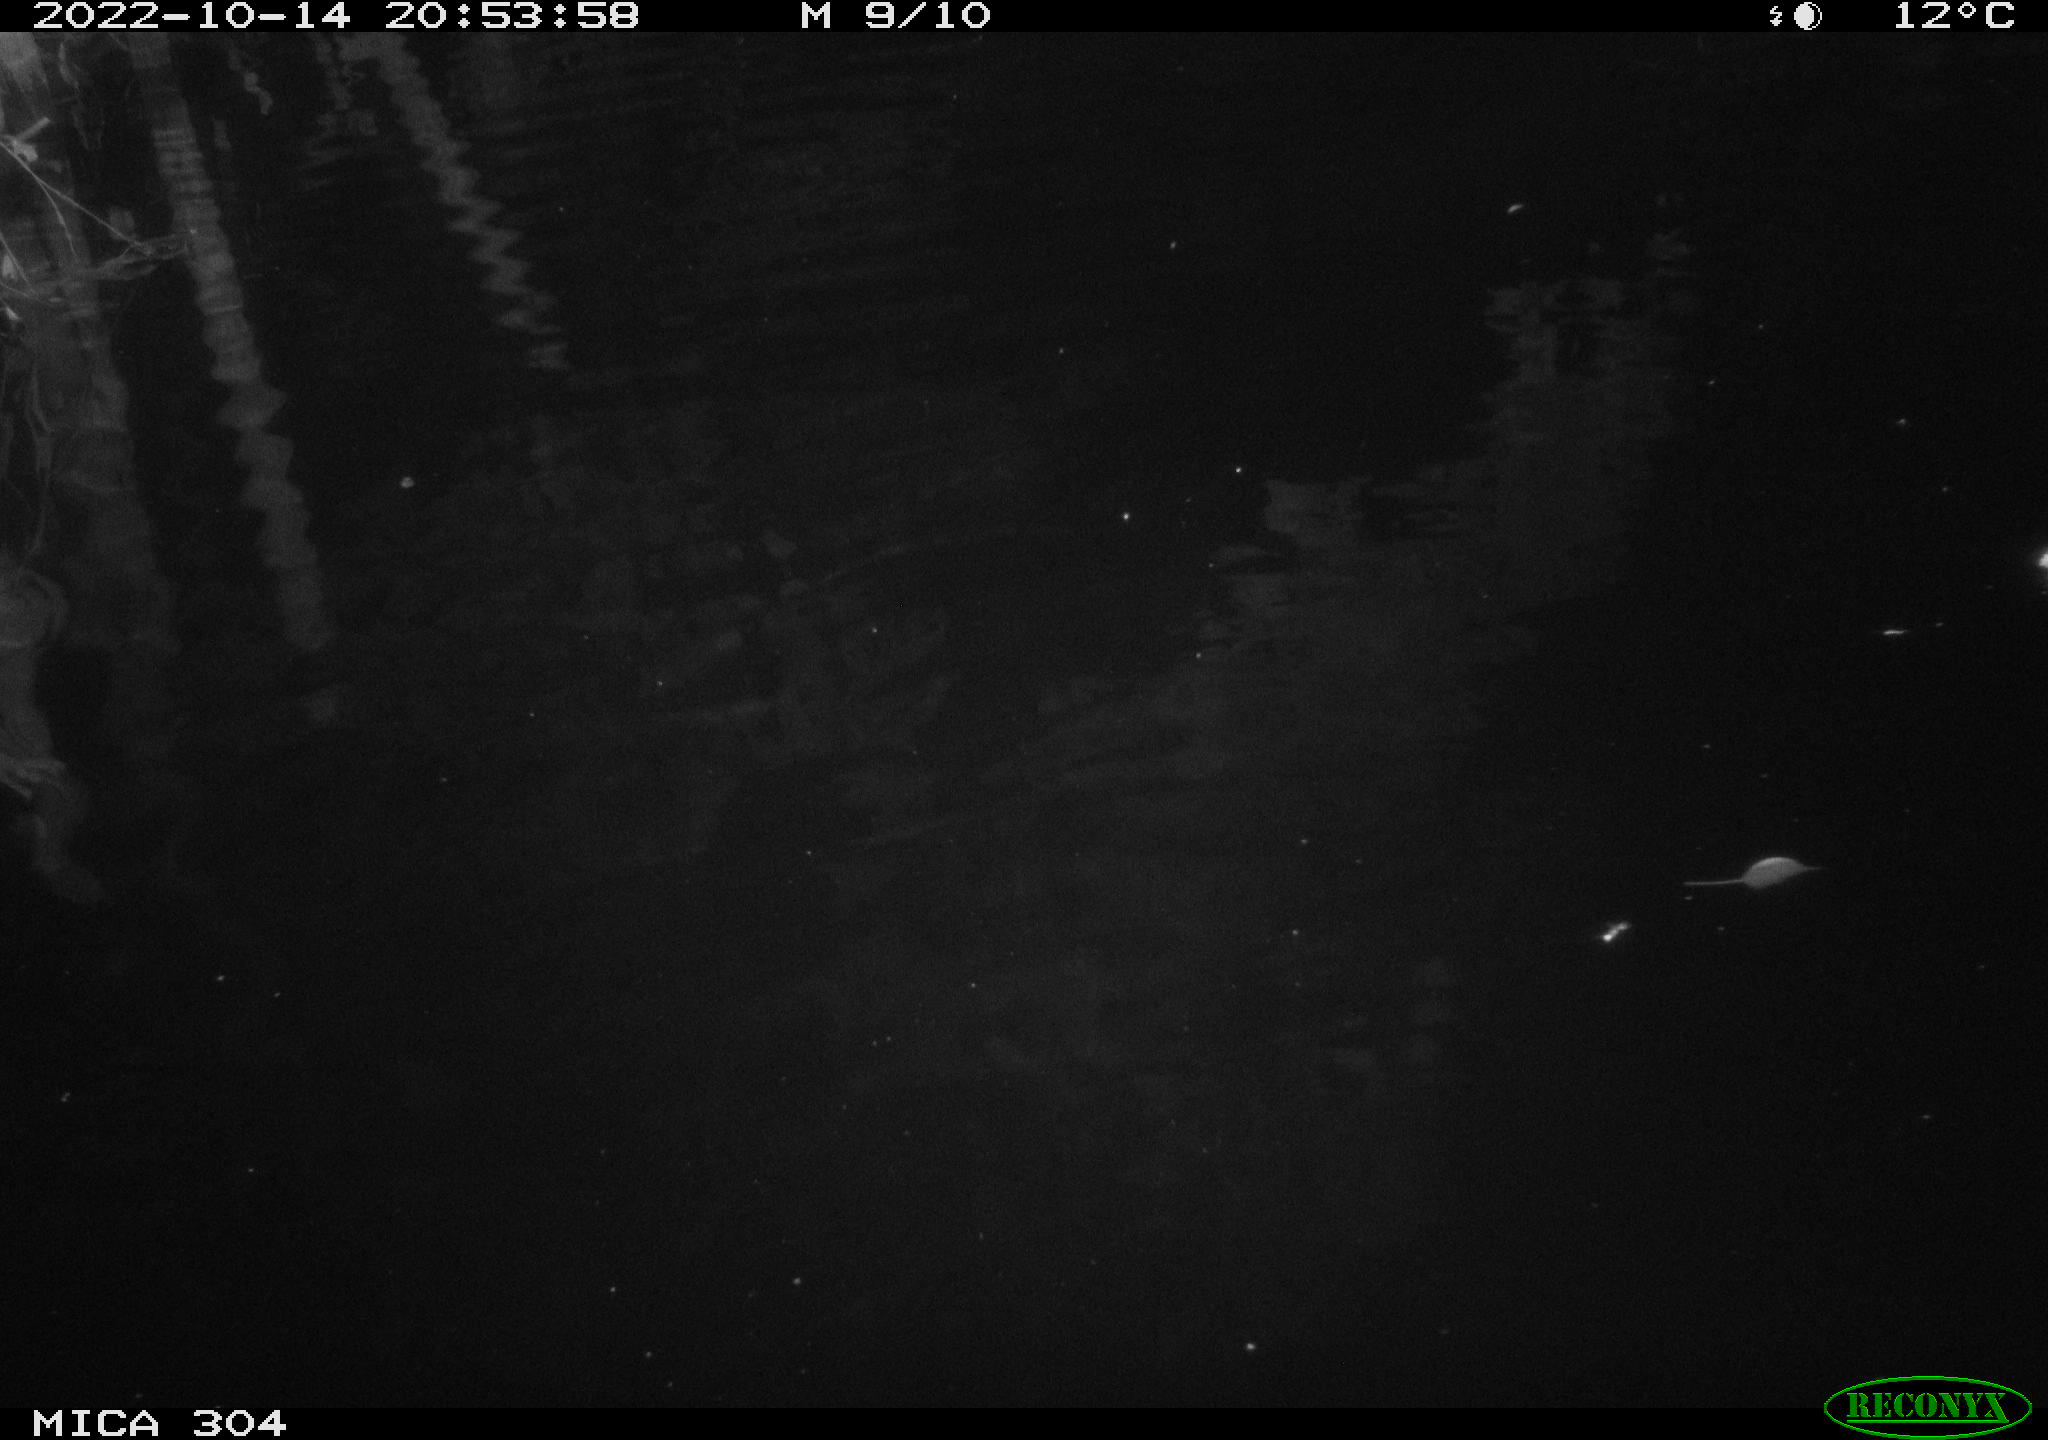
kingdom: Animalia
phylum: Chordata
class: Mammalia
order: Rodentia
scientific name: Rodentia
